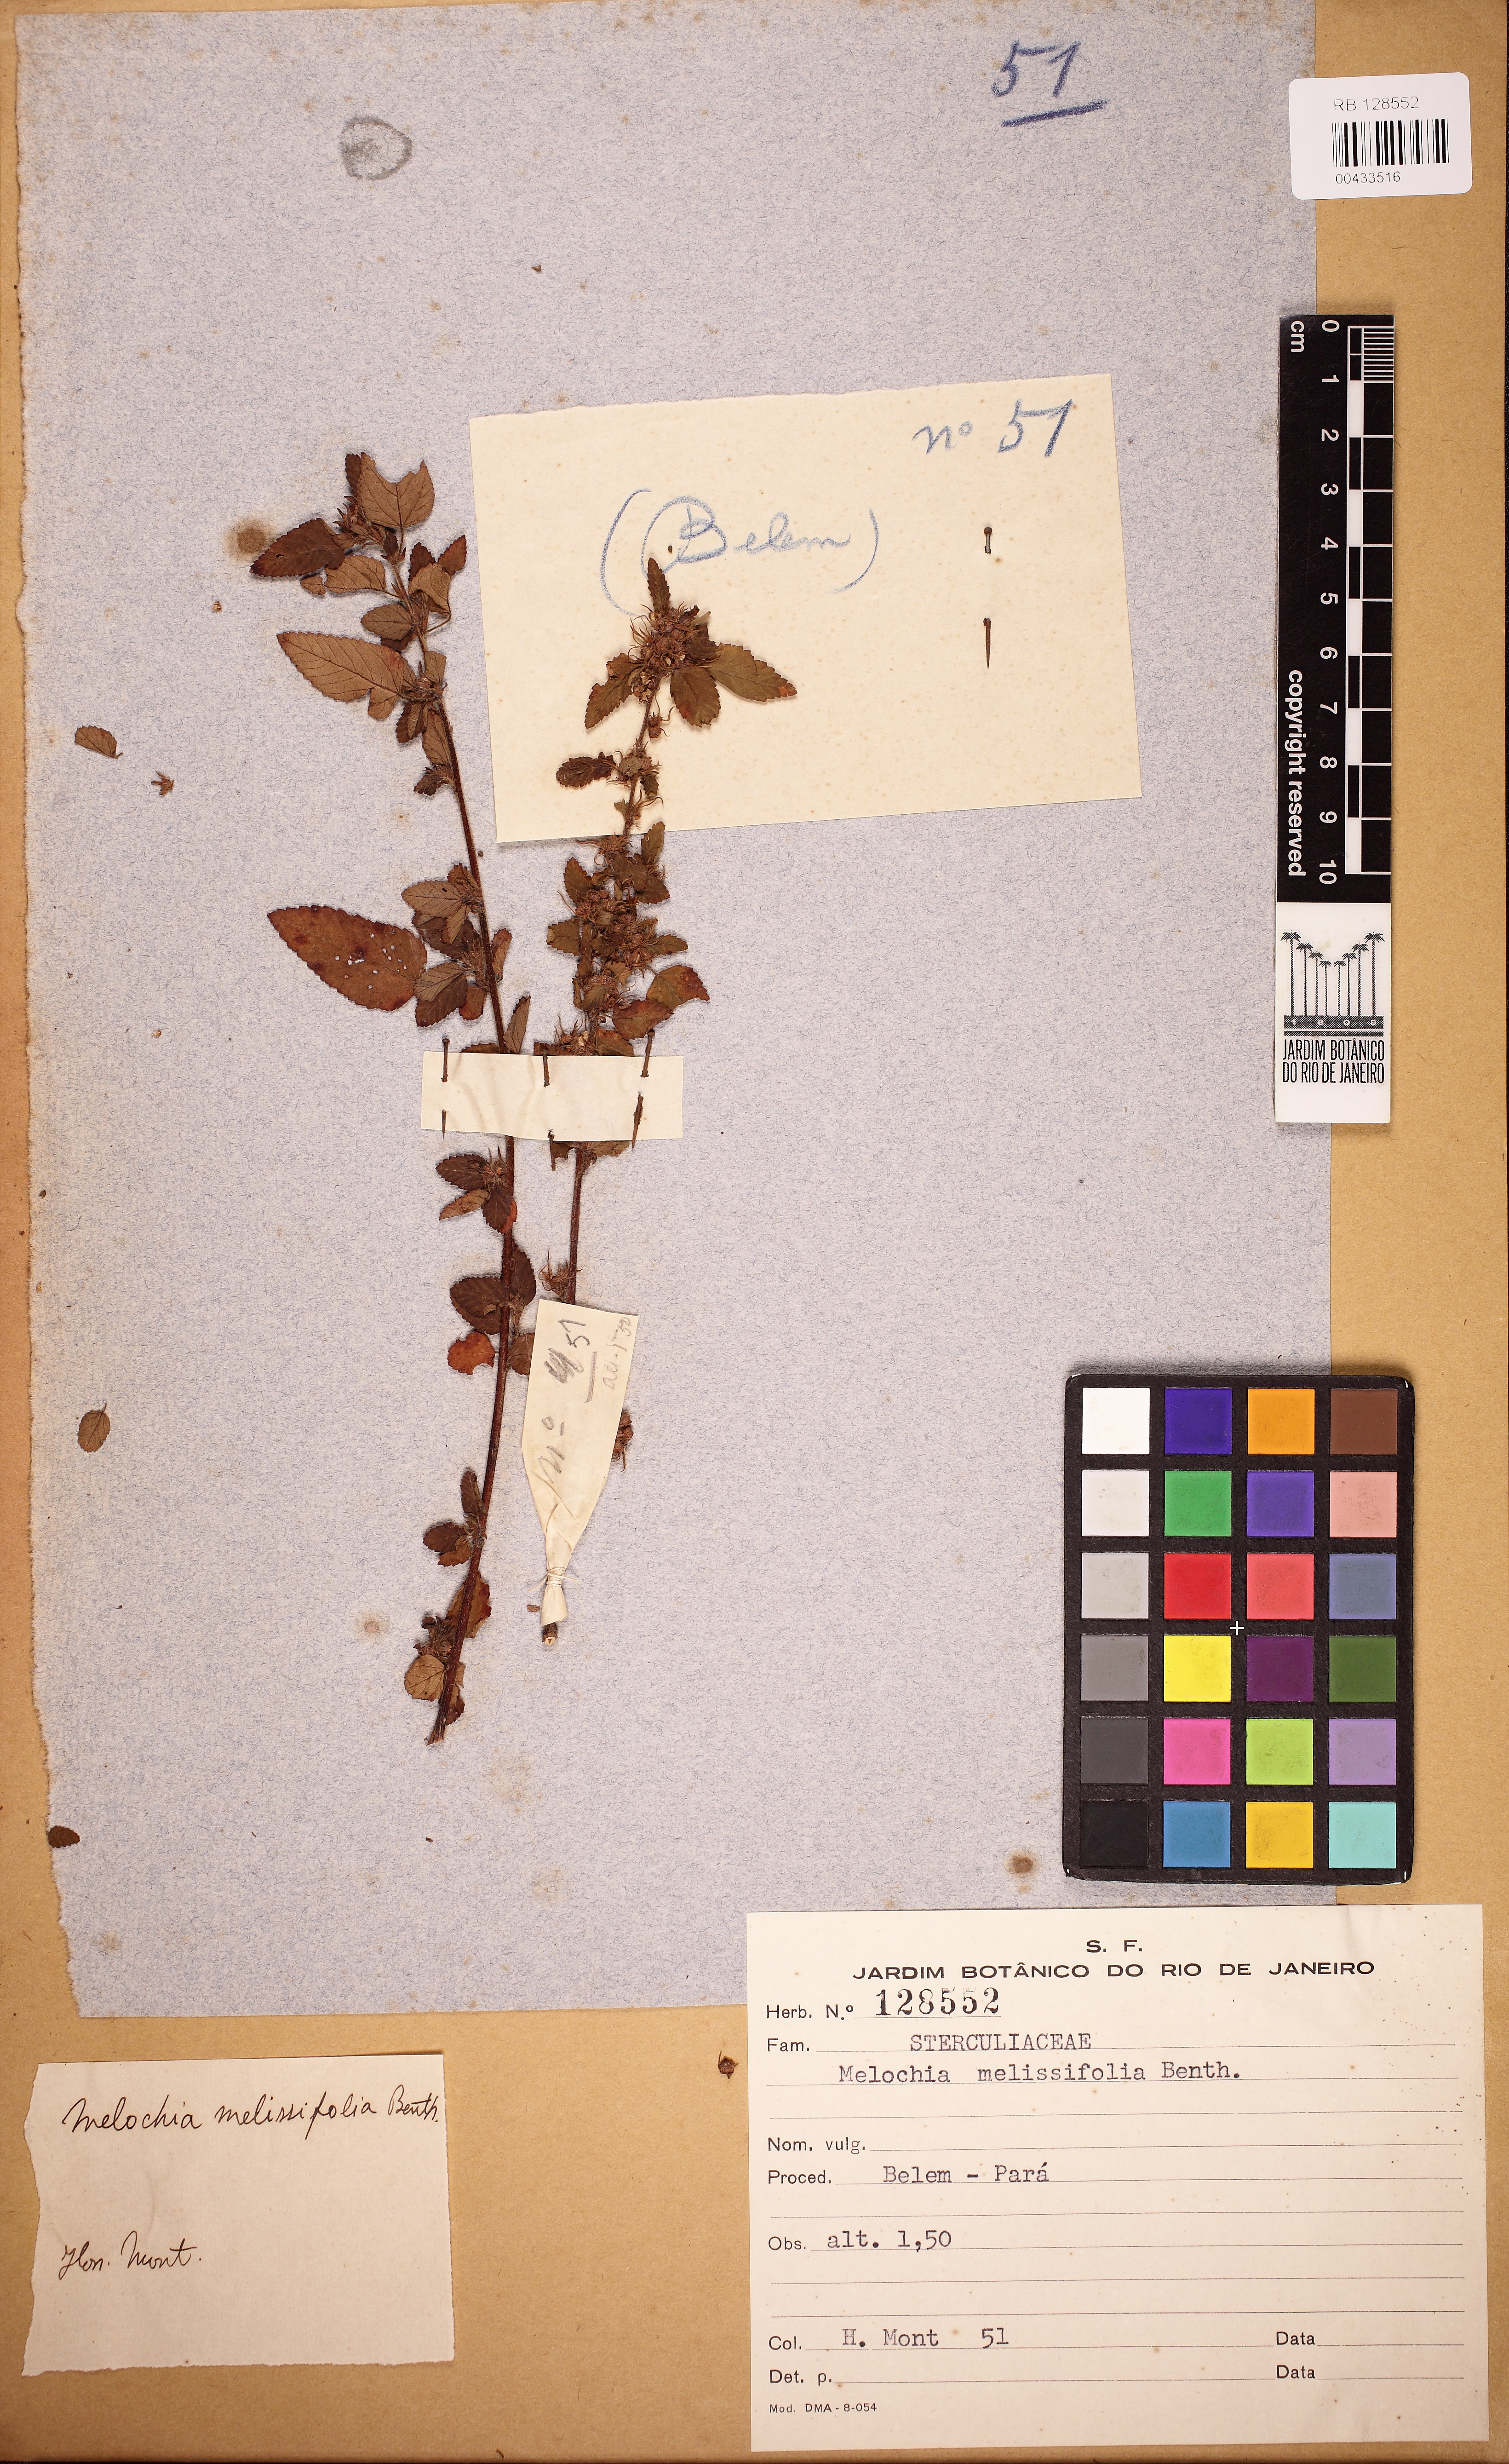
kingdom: Plantae
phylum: Tracheophyta
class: Magnoliopsida
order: Malvales
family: Malvaceae
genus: Melochia
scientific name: Melochia melissifolia
